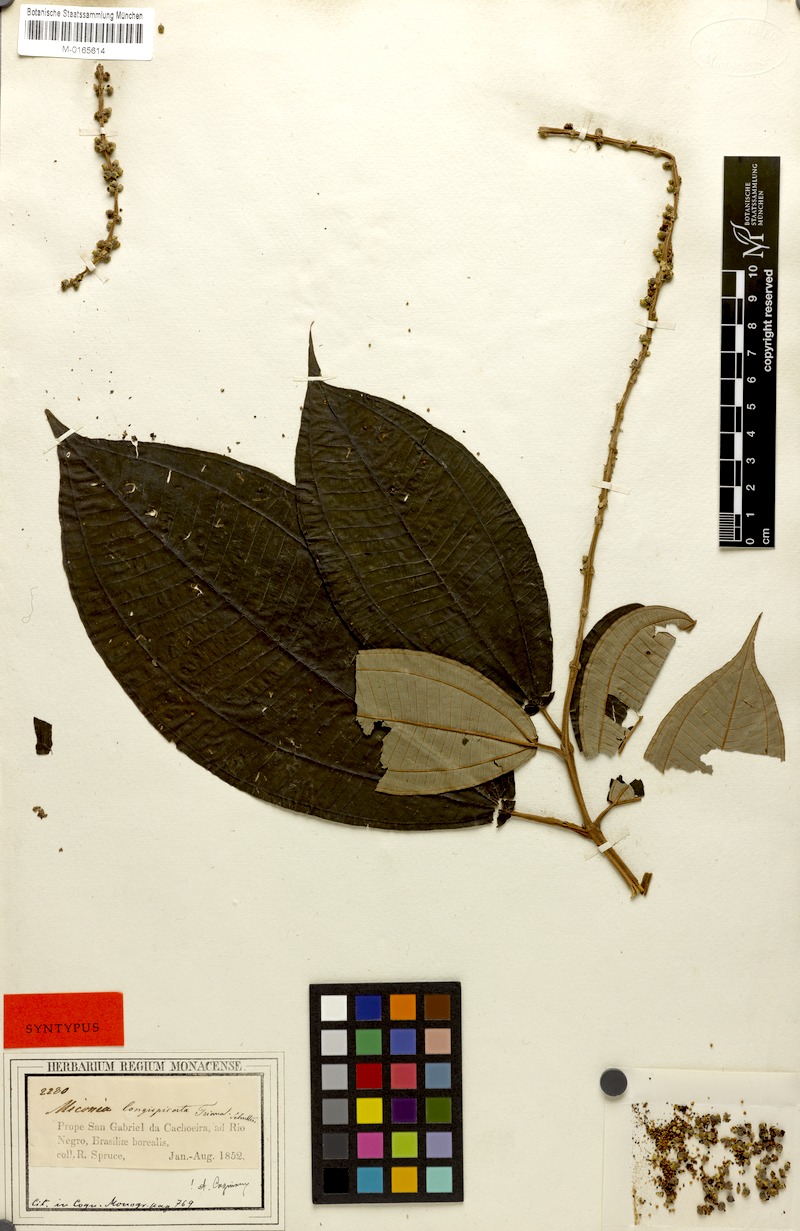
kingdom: Plantae
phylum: Tracheophyta
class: Magnoliopsida
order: Myrtales
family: Melastomataceae
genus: Miconia
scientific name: Miconia longispicata
